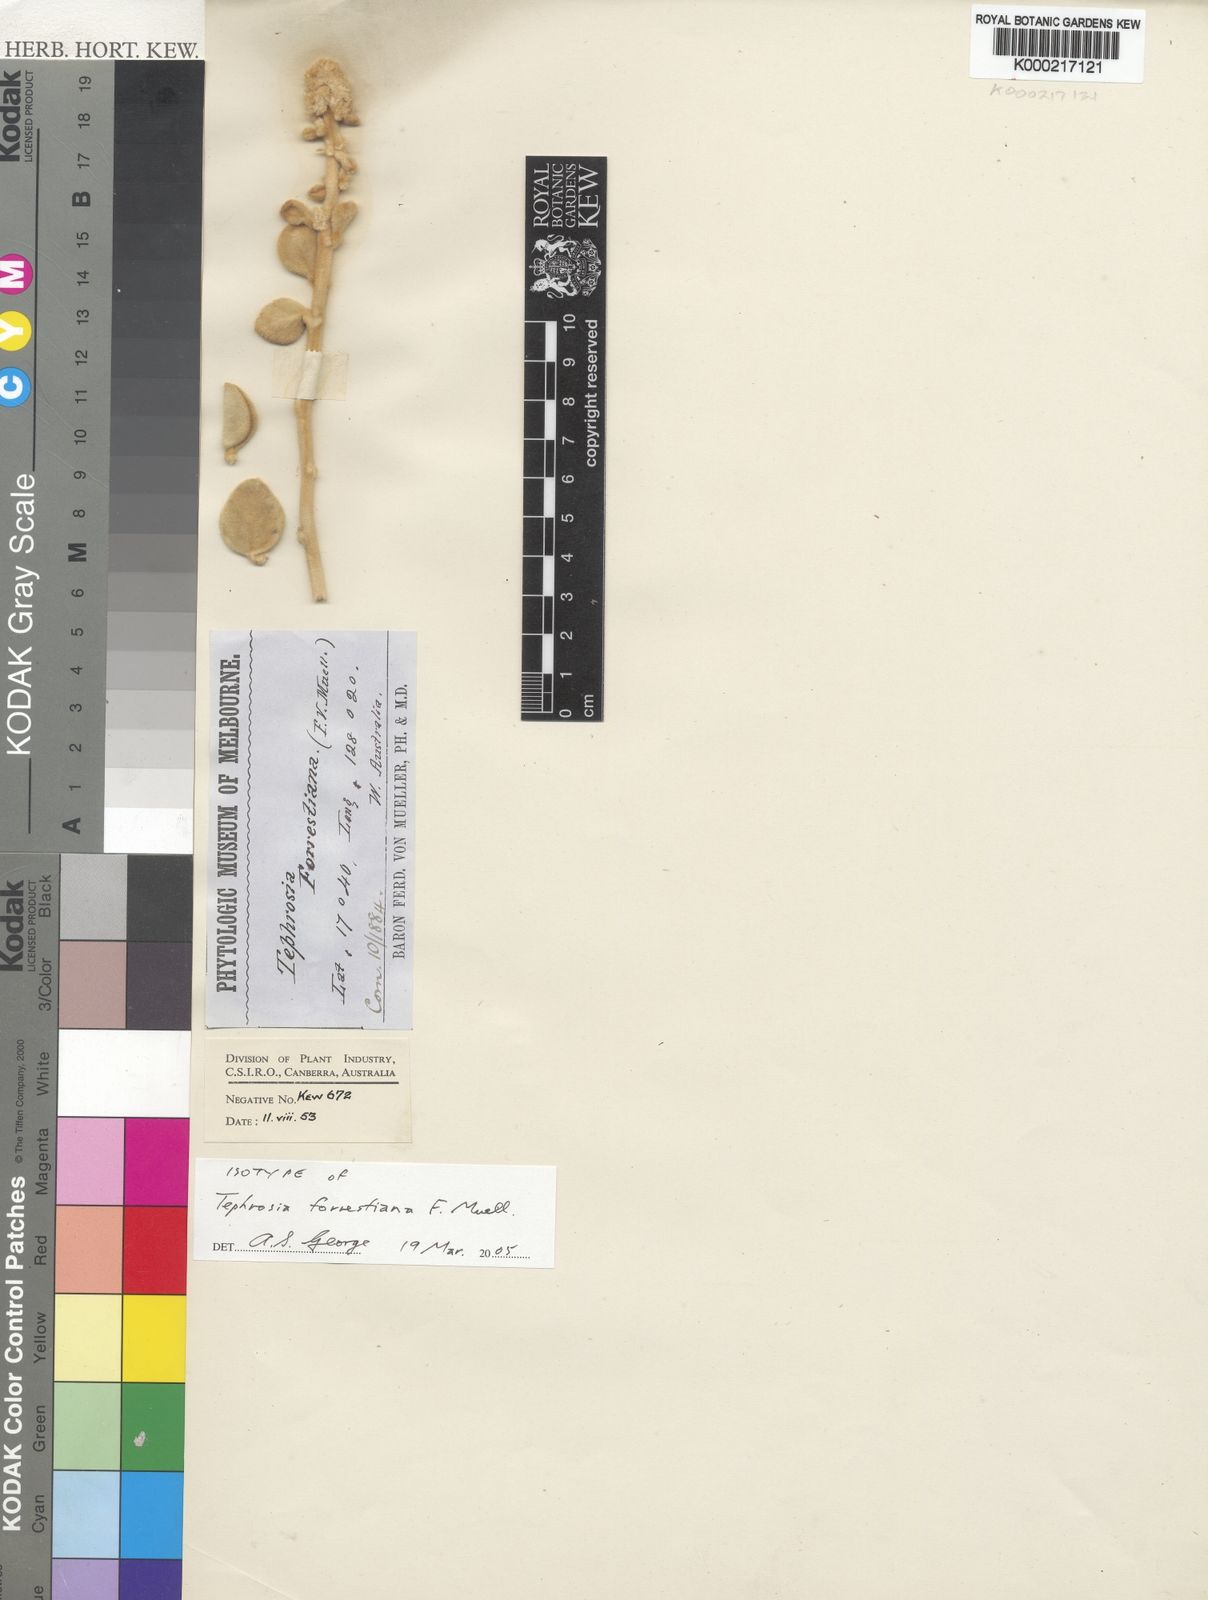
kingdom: Plantae
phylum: Tracheophyta
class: Magnoliopsida
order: Fabales
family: Fabaceae
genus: Tephrosia
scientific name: Tephrosia forrestiana
